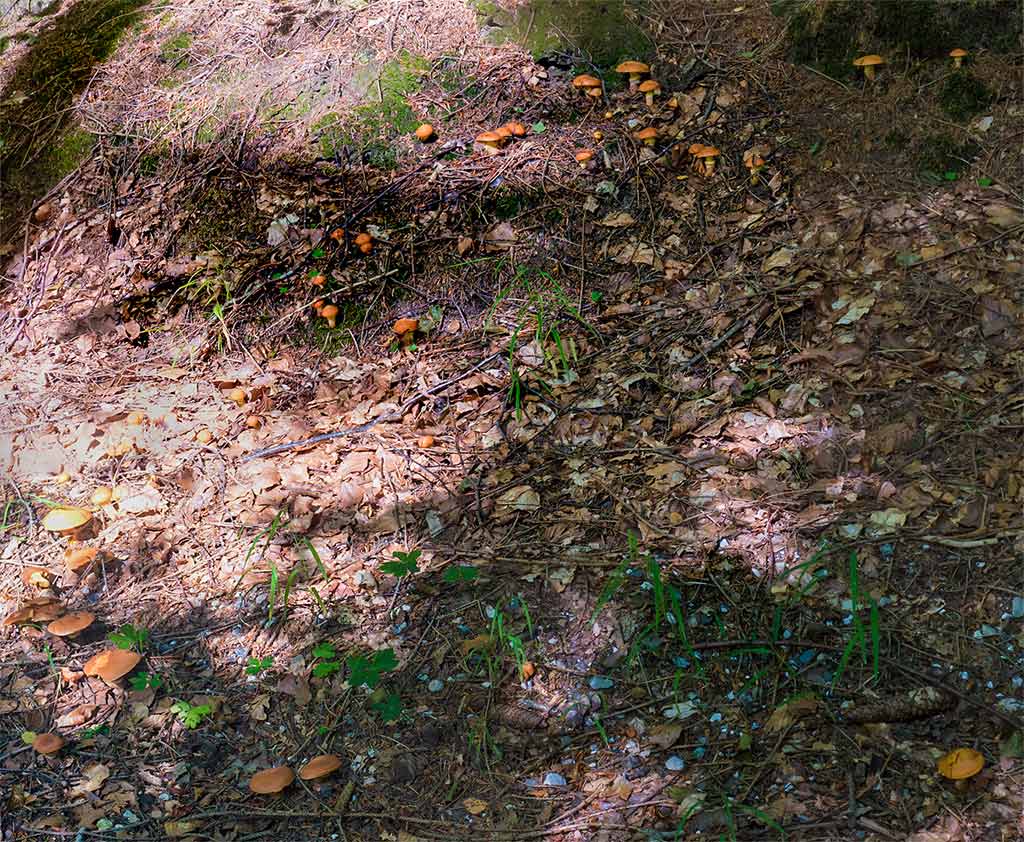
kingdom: Fungi
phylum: Basidiomycota
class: Agaricomycetes
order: Boletales
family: Suillaceae
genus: Suillus
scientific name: Suillus grevillei
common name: lærke-slimrørhat
